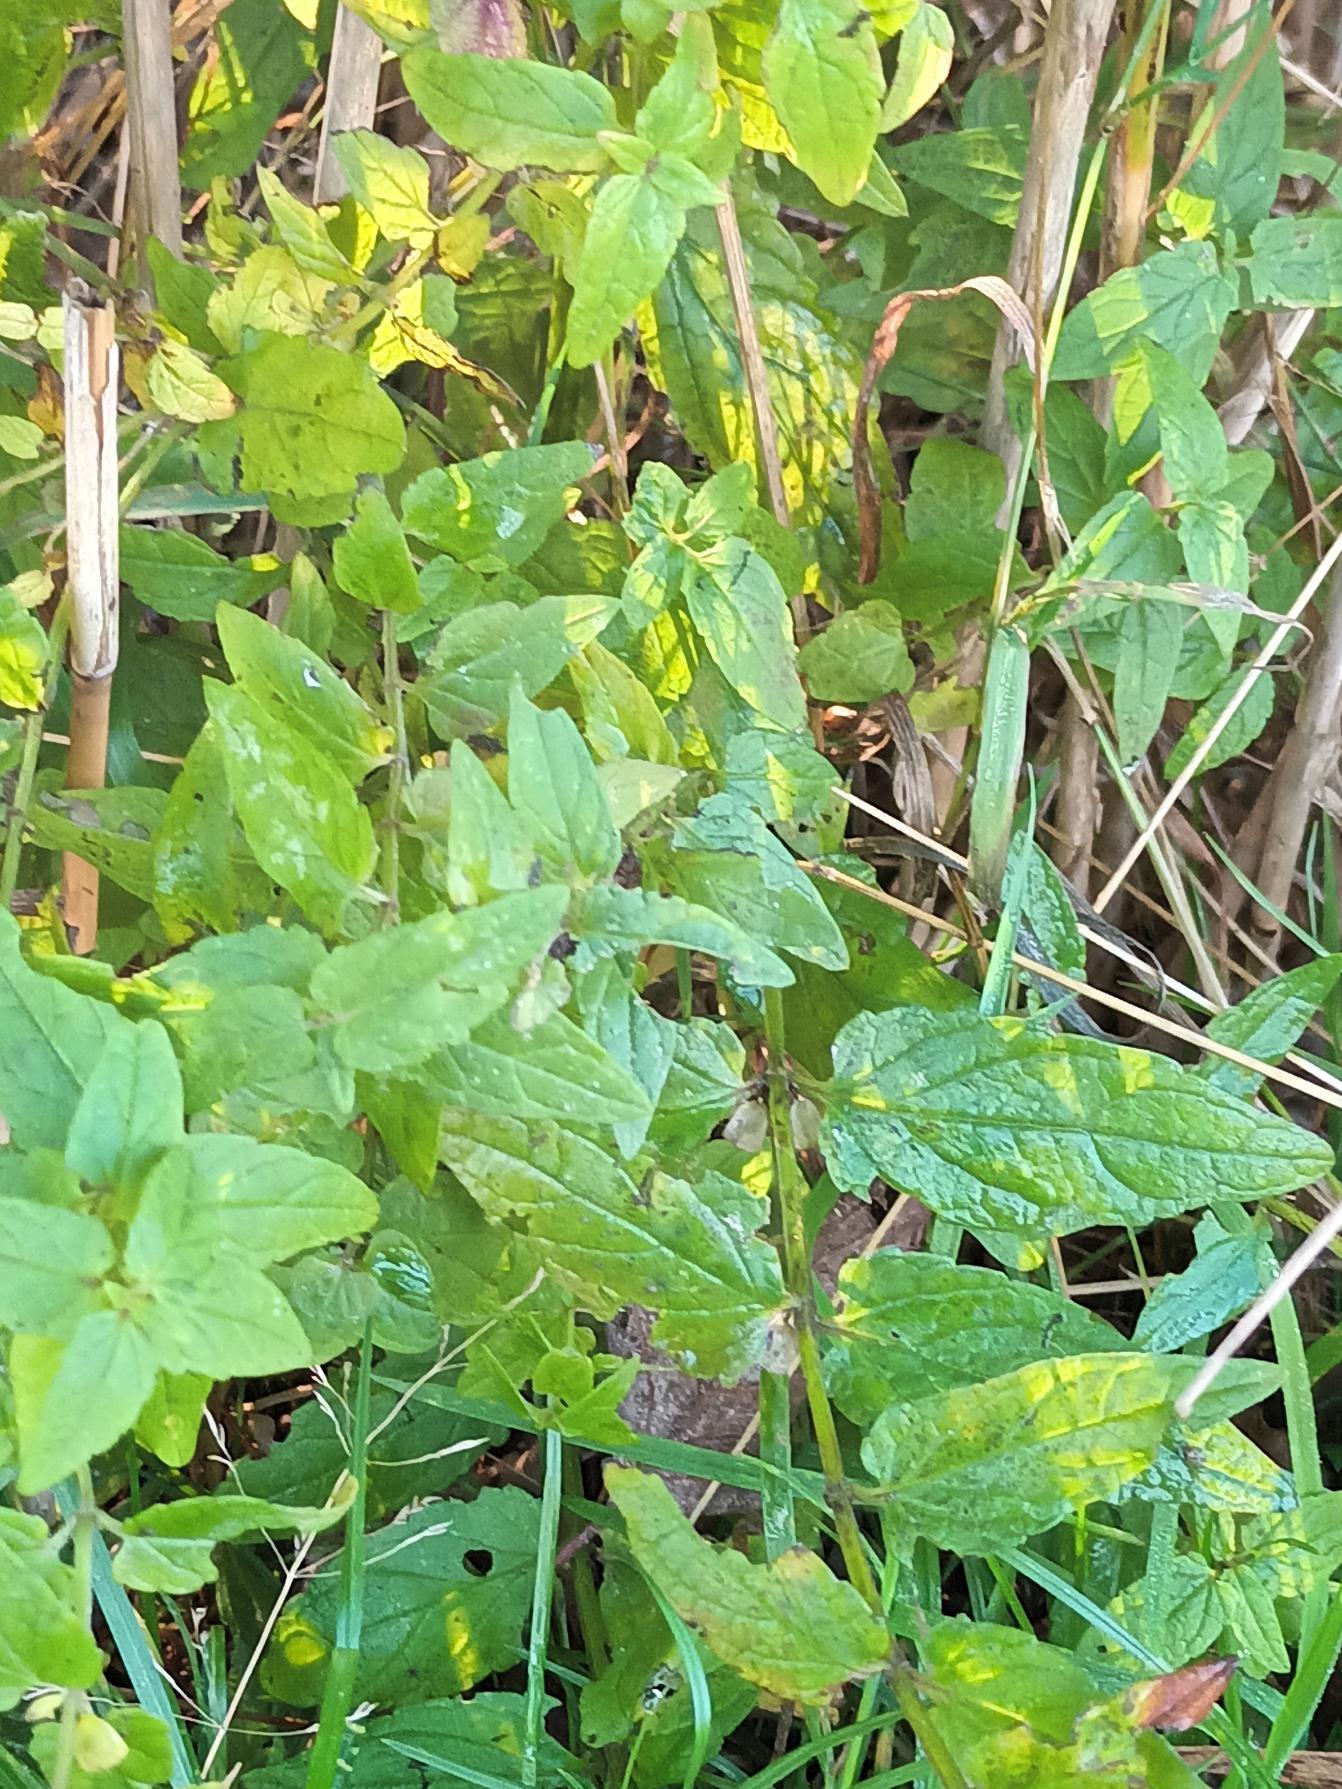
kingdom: Plantae
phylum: Tracheophyta
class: Magnoliopsida
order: Lamiales
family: Lamiaceae
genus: Scutellaria
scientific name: Scutellaria galericulata
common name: Almindelig skjolddrager
